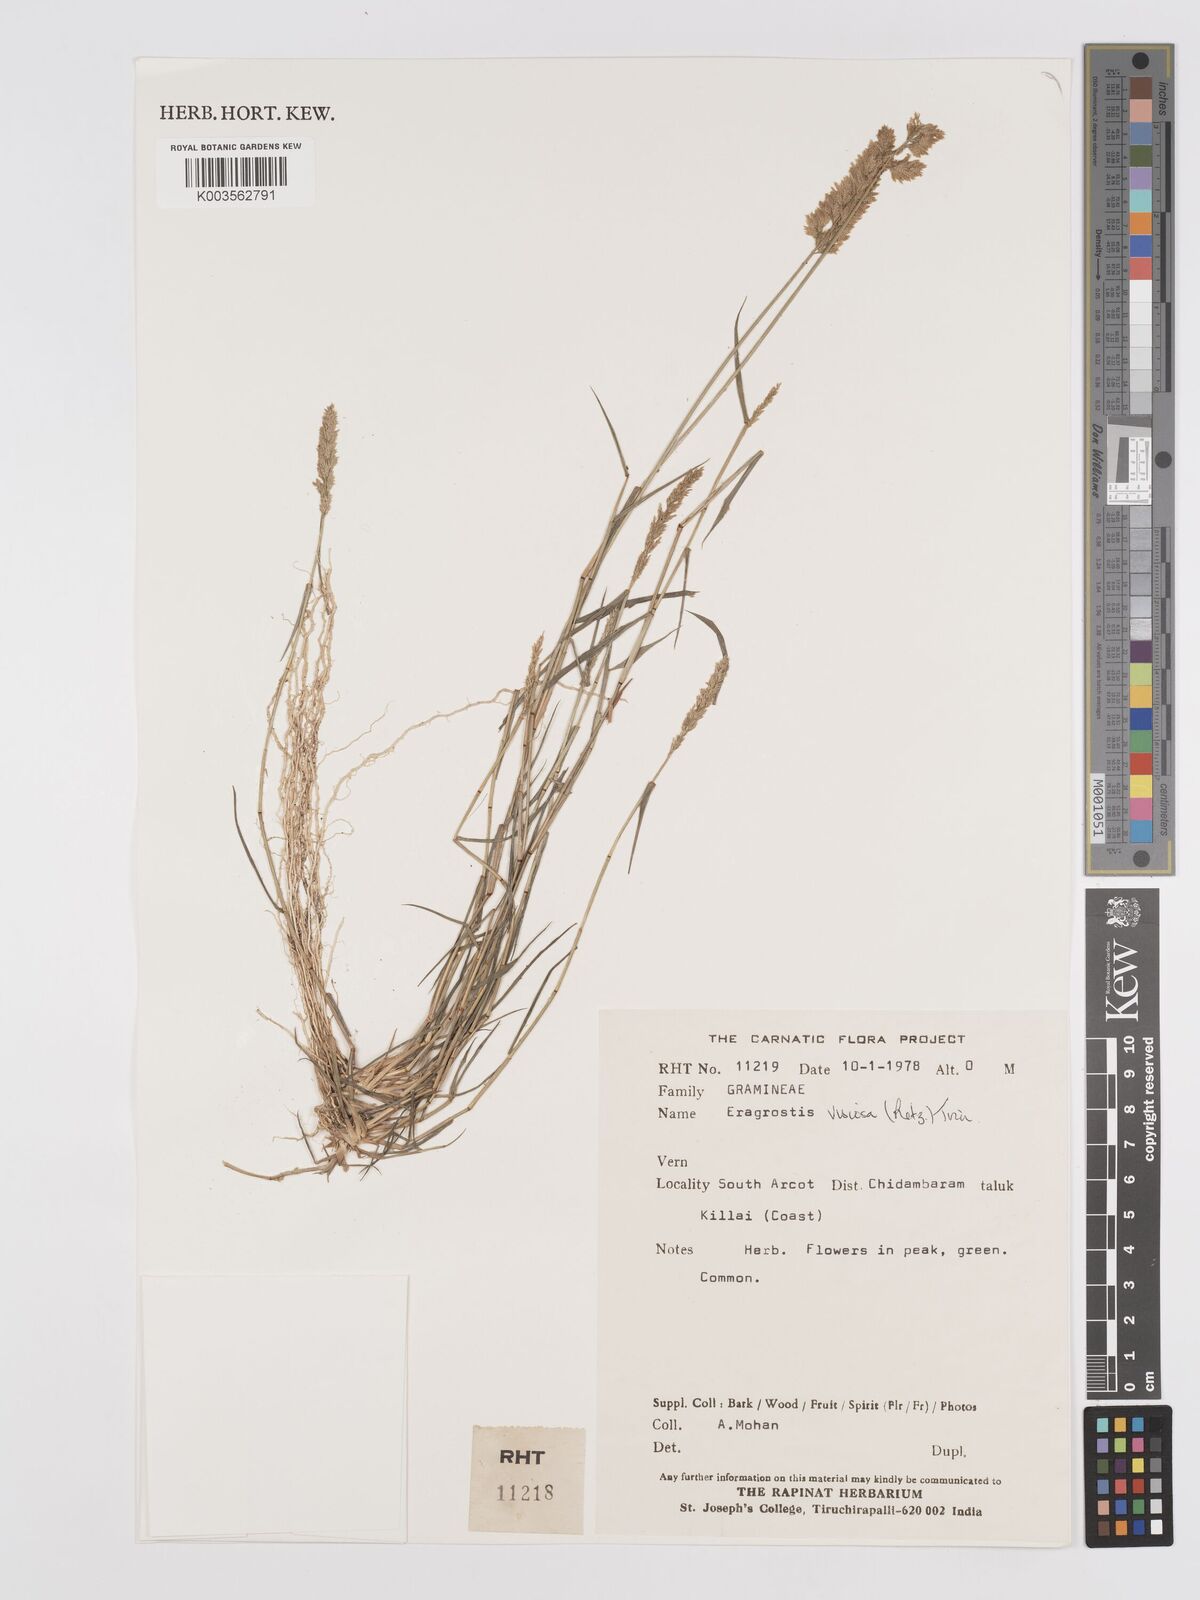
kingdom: Plantae
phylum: Tracheophyta
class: Liliopsida
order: Poales
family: Poaceae
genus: Eragrostis
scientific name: Eragrostis viscosa
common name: Sticky love grass
